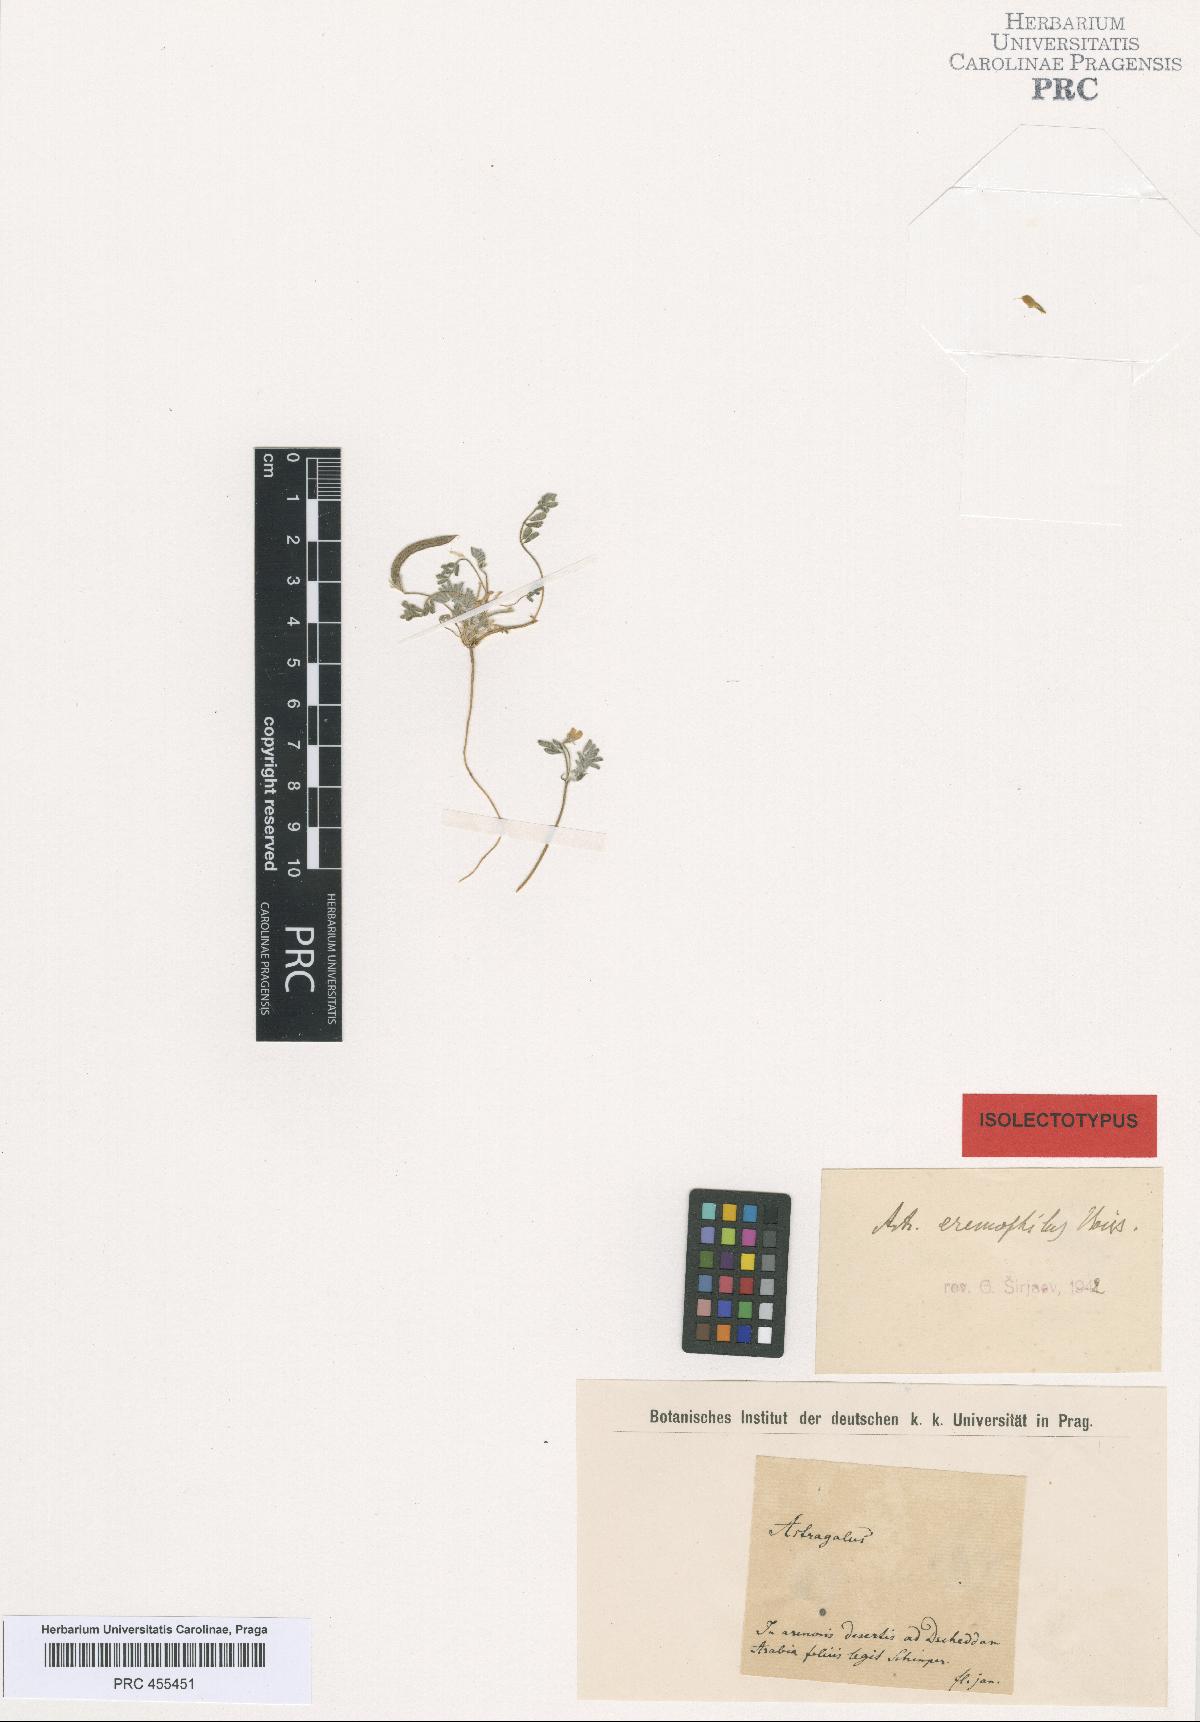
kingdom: Plantae
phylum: Tracheophyta
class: Magnoliopsida
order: Fabales
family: Fabaceae
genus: Astragalus
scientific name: Astragalus eremophilus
